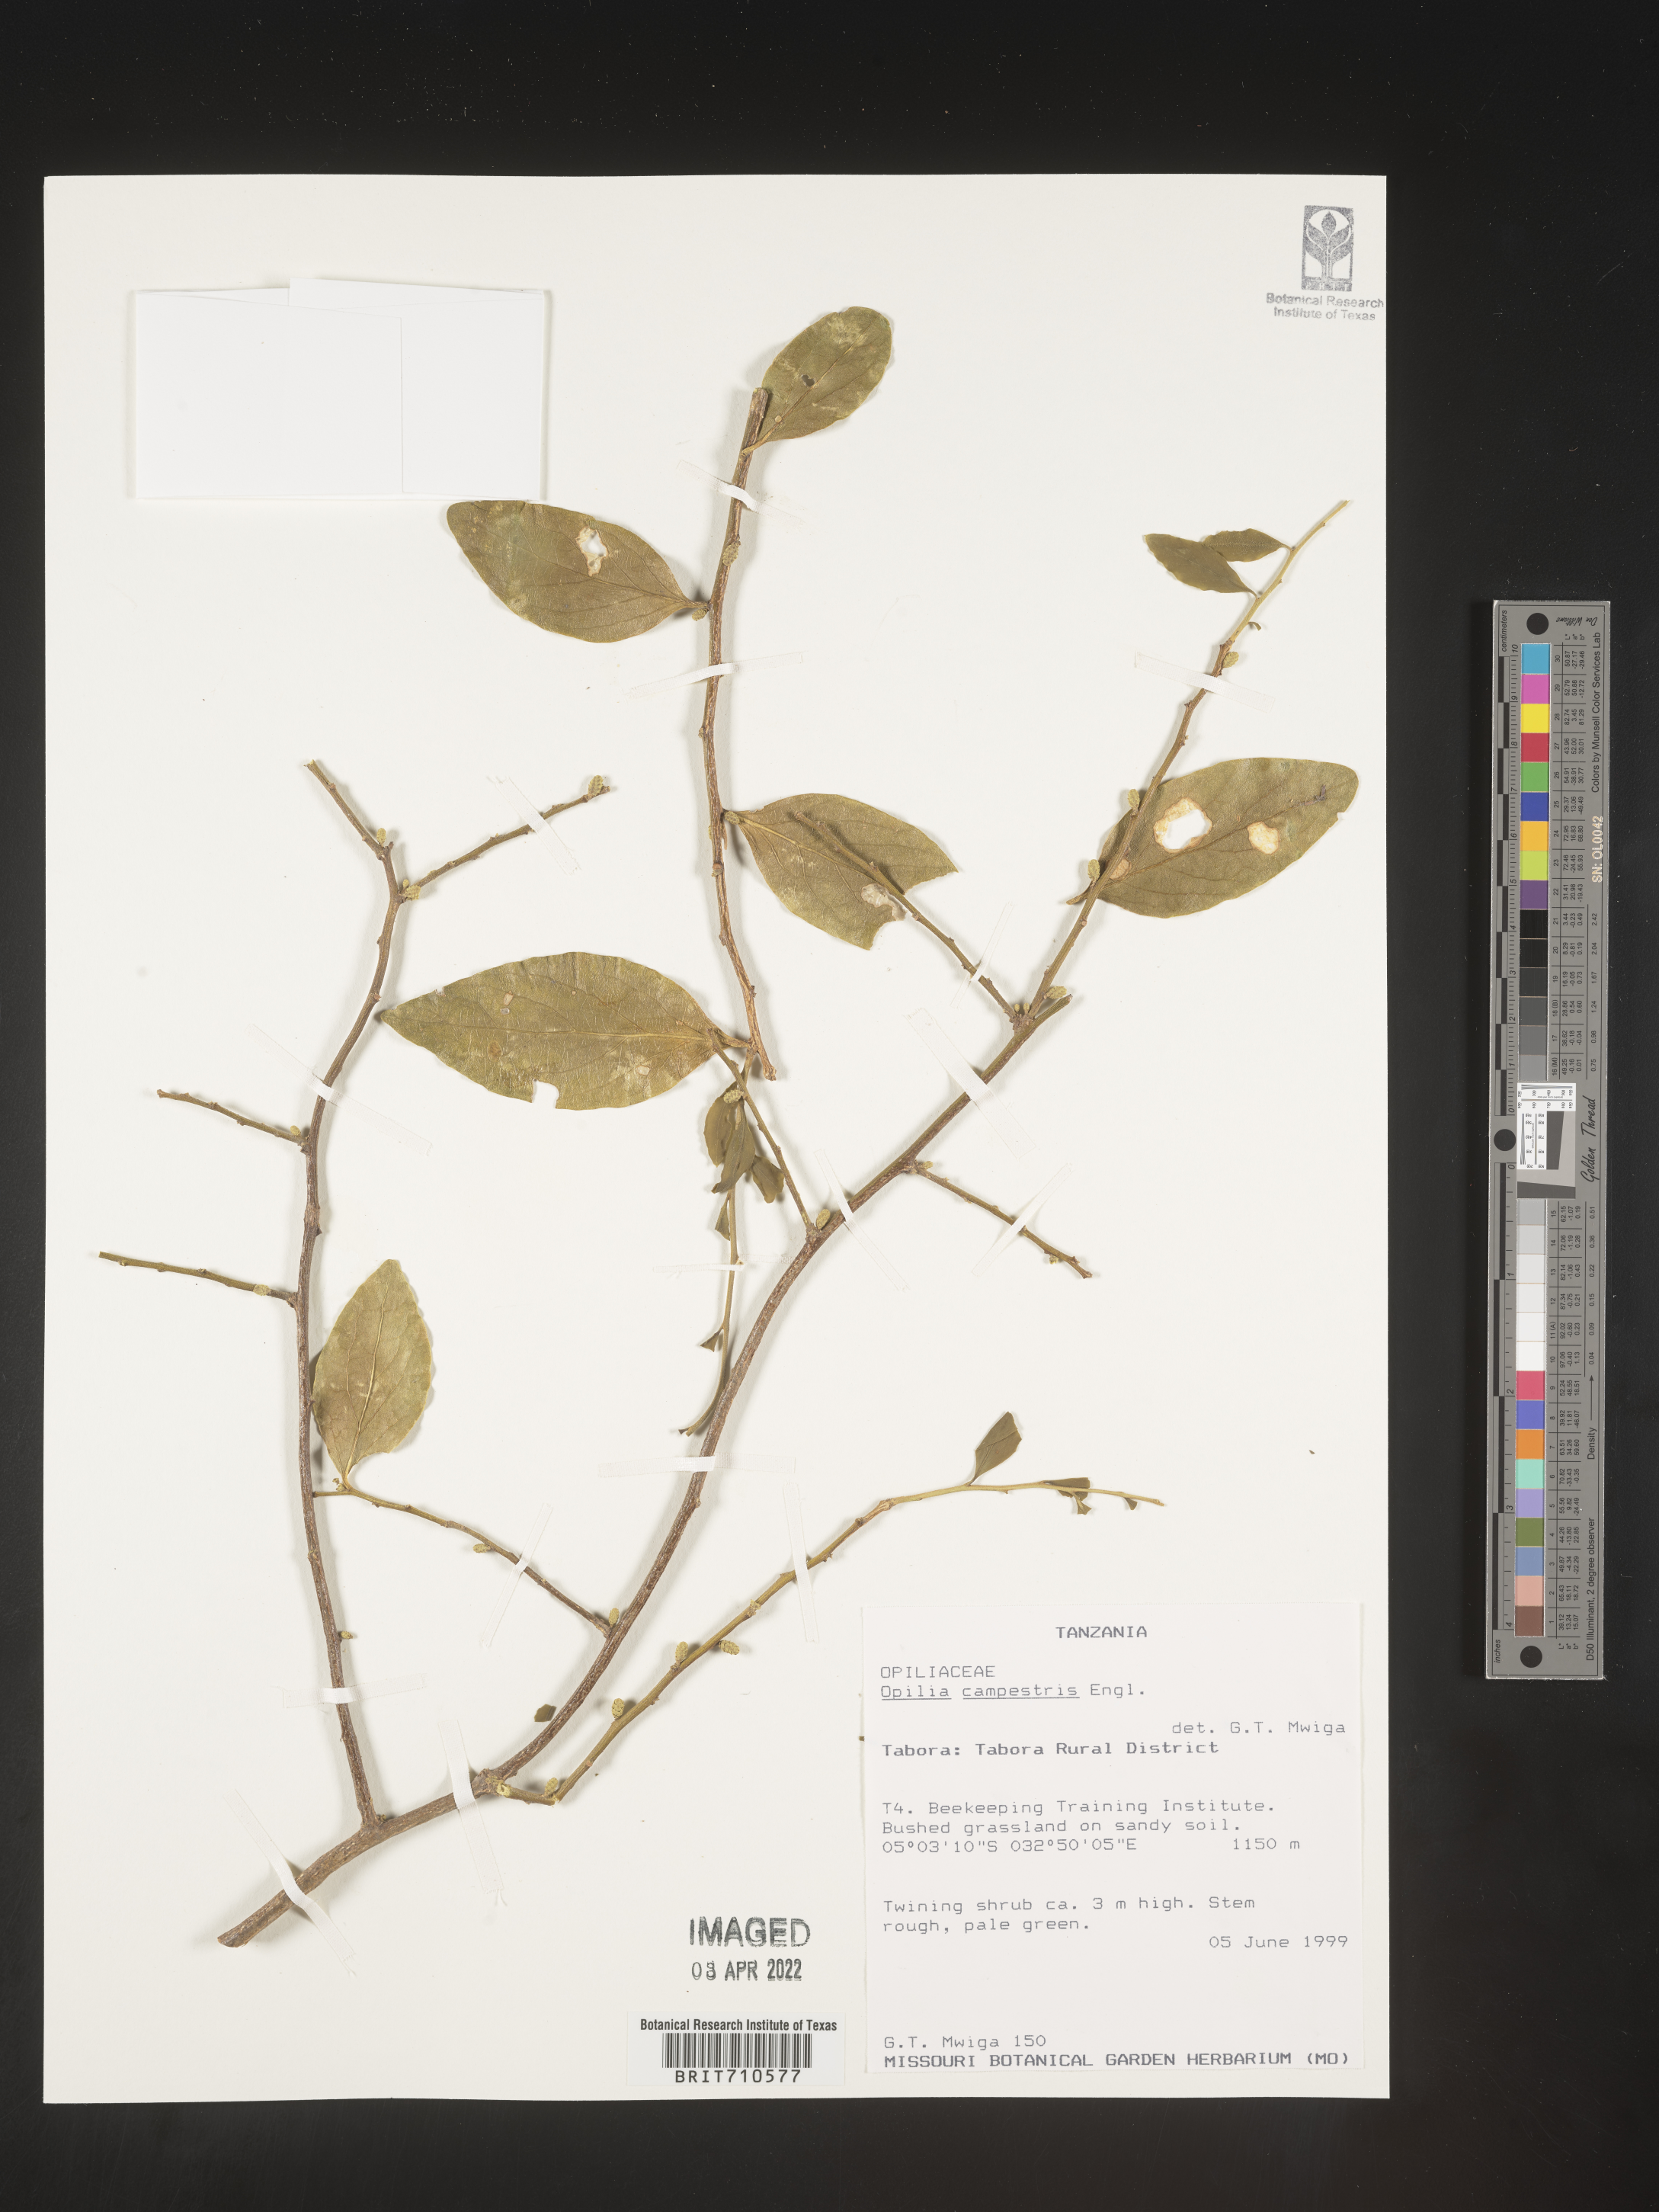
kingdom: Plantae
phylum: Tracheophyta
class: Magnoliopsida
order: Santalales
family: Opiliaceae
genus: Opilia
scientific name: Opilia
